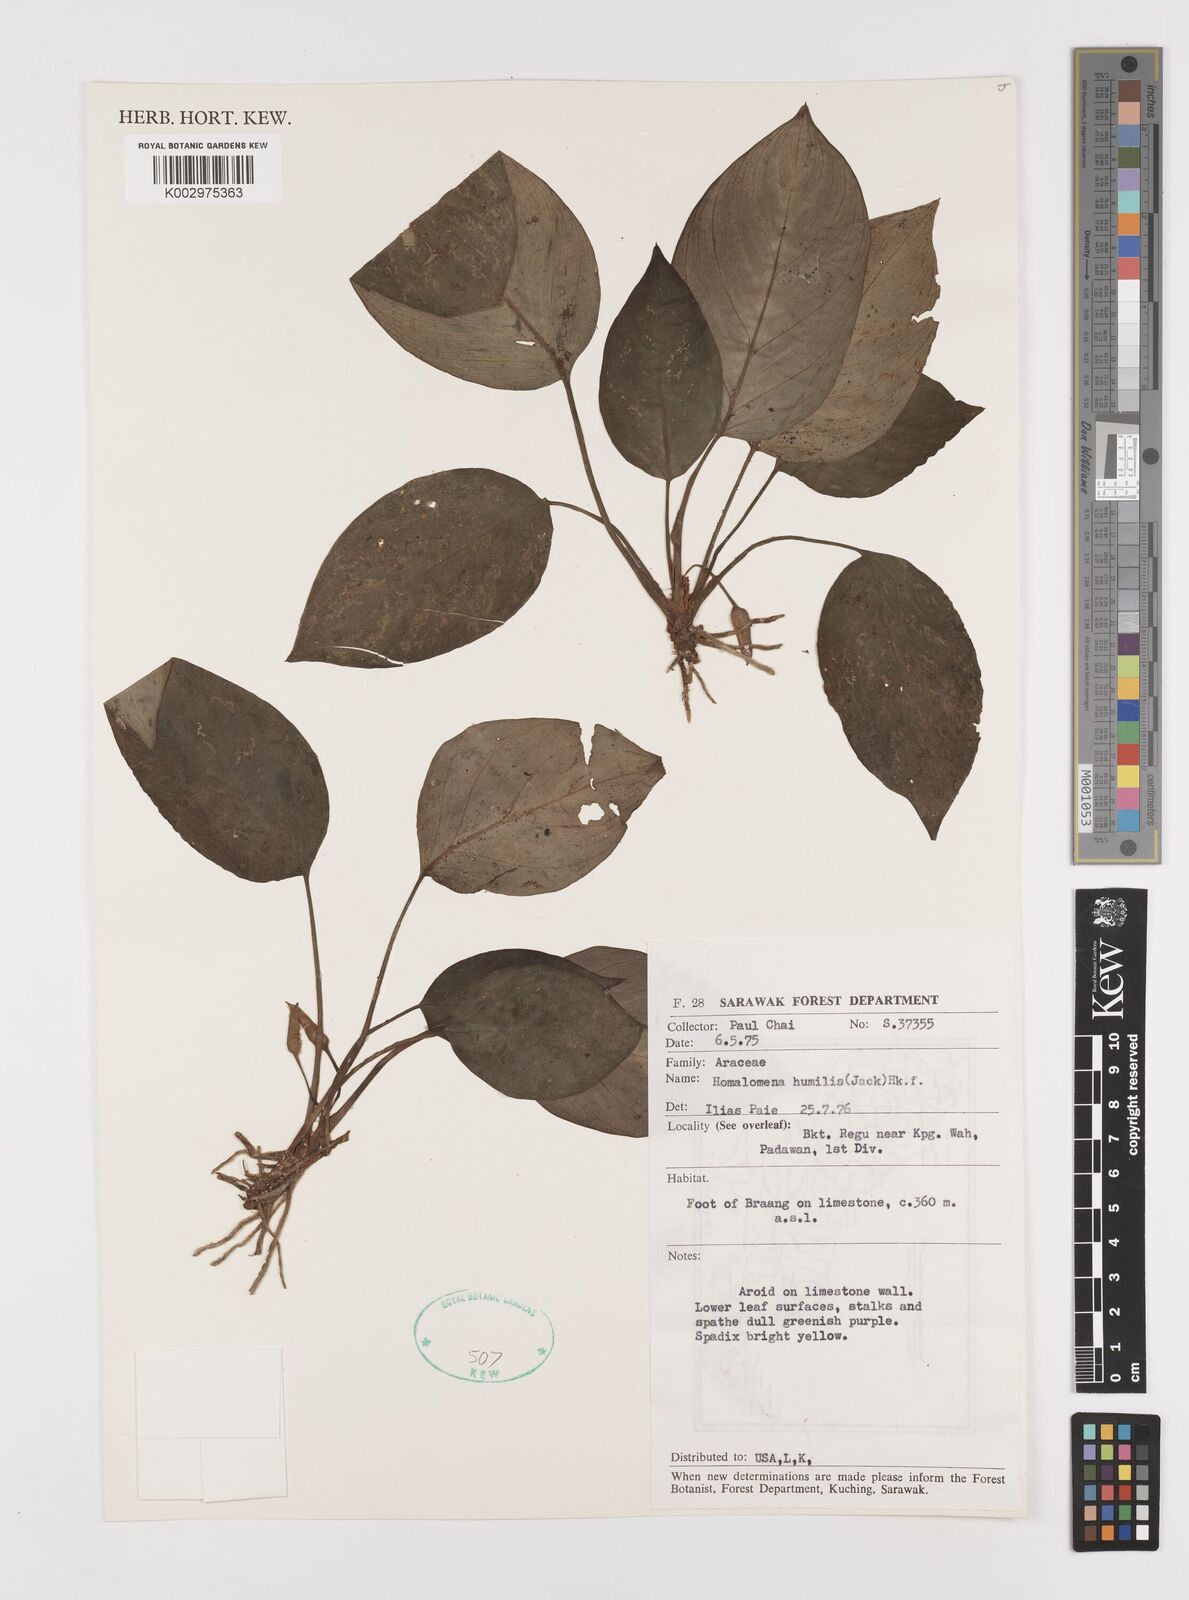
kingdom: Plantae
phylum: Tracheophyta
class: Liliopsida
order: Alismatales
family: Araceae
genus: Homalomena
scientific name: Homalomena humilis
